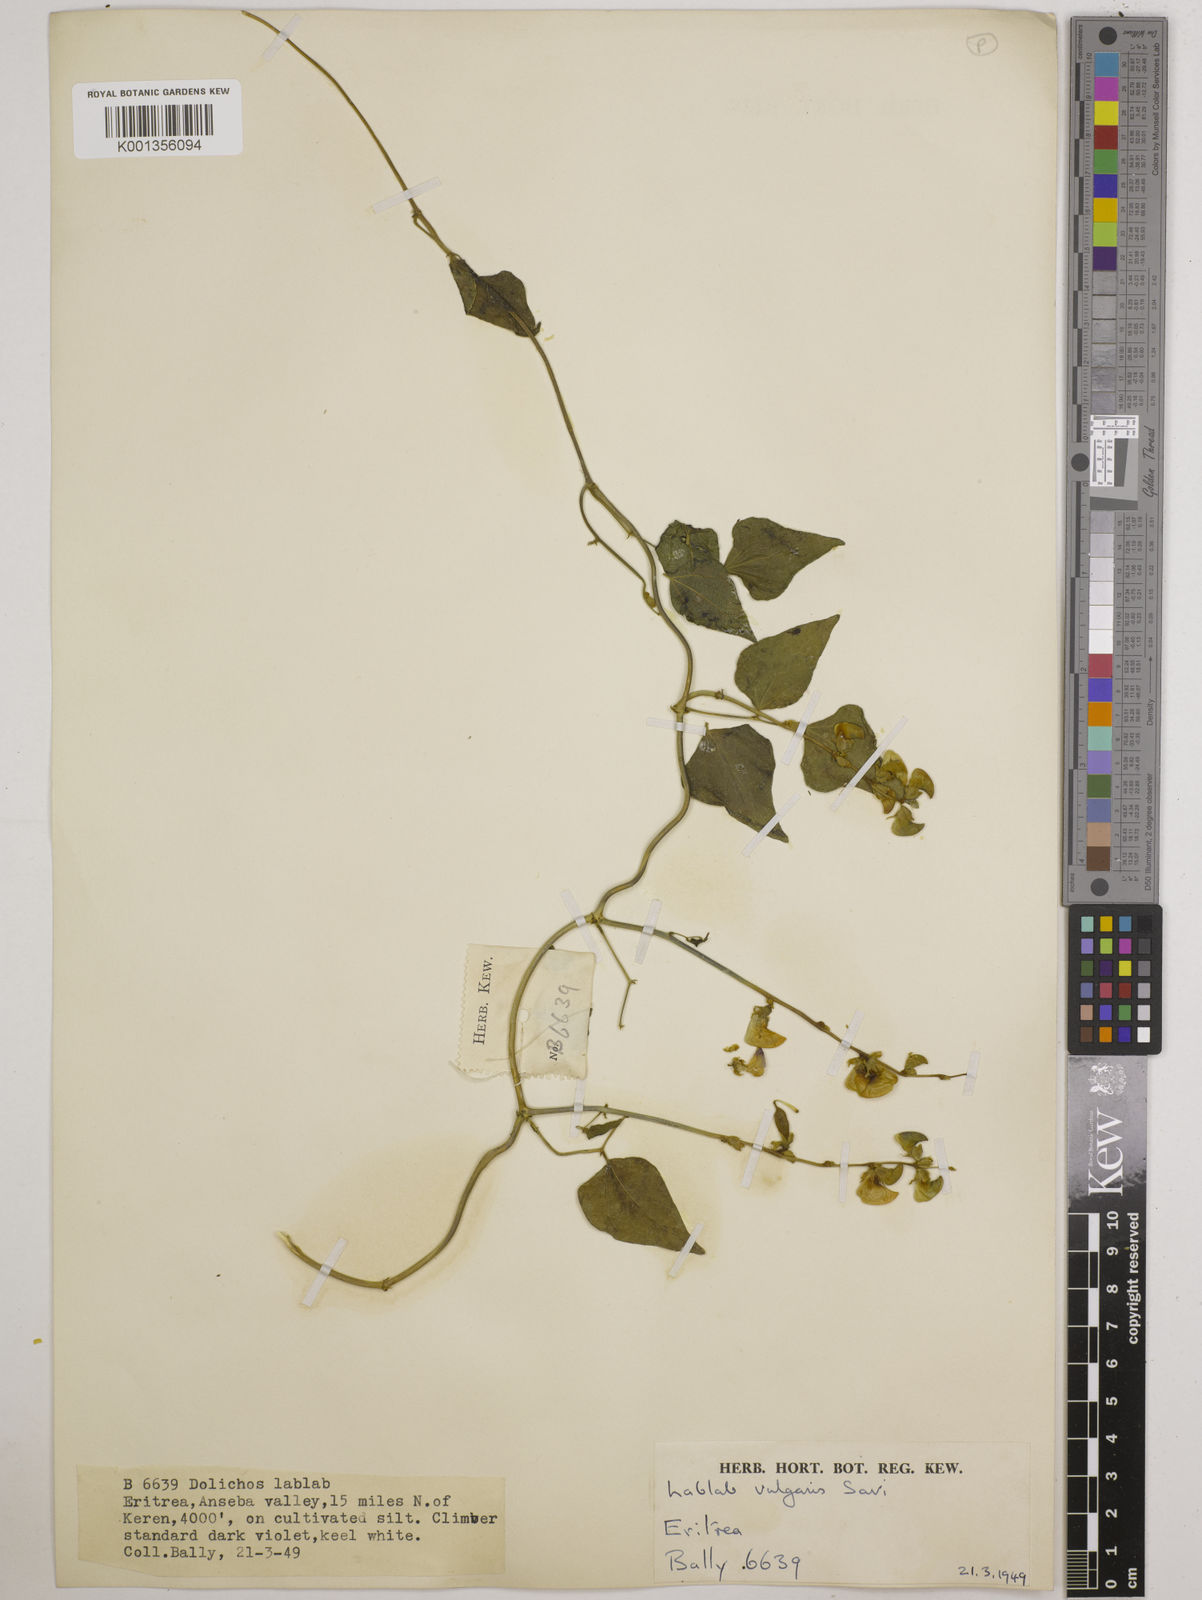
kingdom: Plantae
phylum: Tracheophyta
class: Magnoliopsida
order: Fabales
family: Fabaceae
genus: Lablab
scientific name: Lablab purpureus
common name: Lablab-bean
